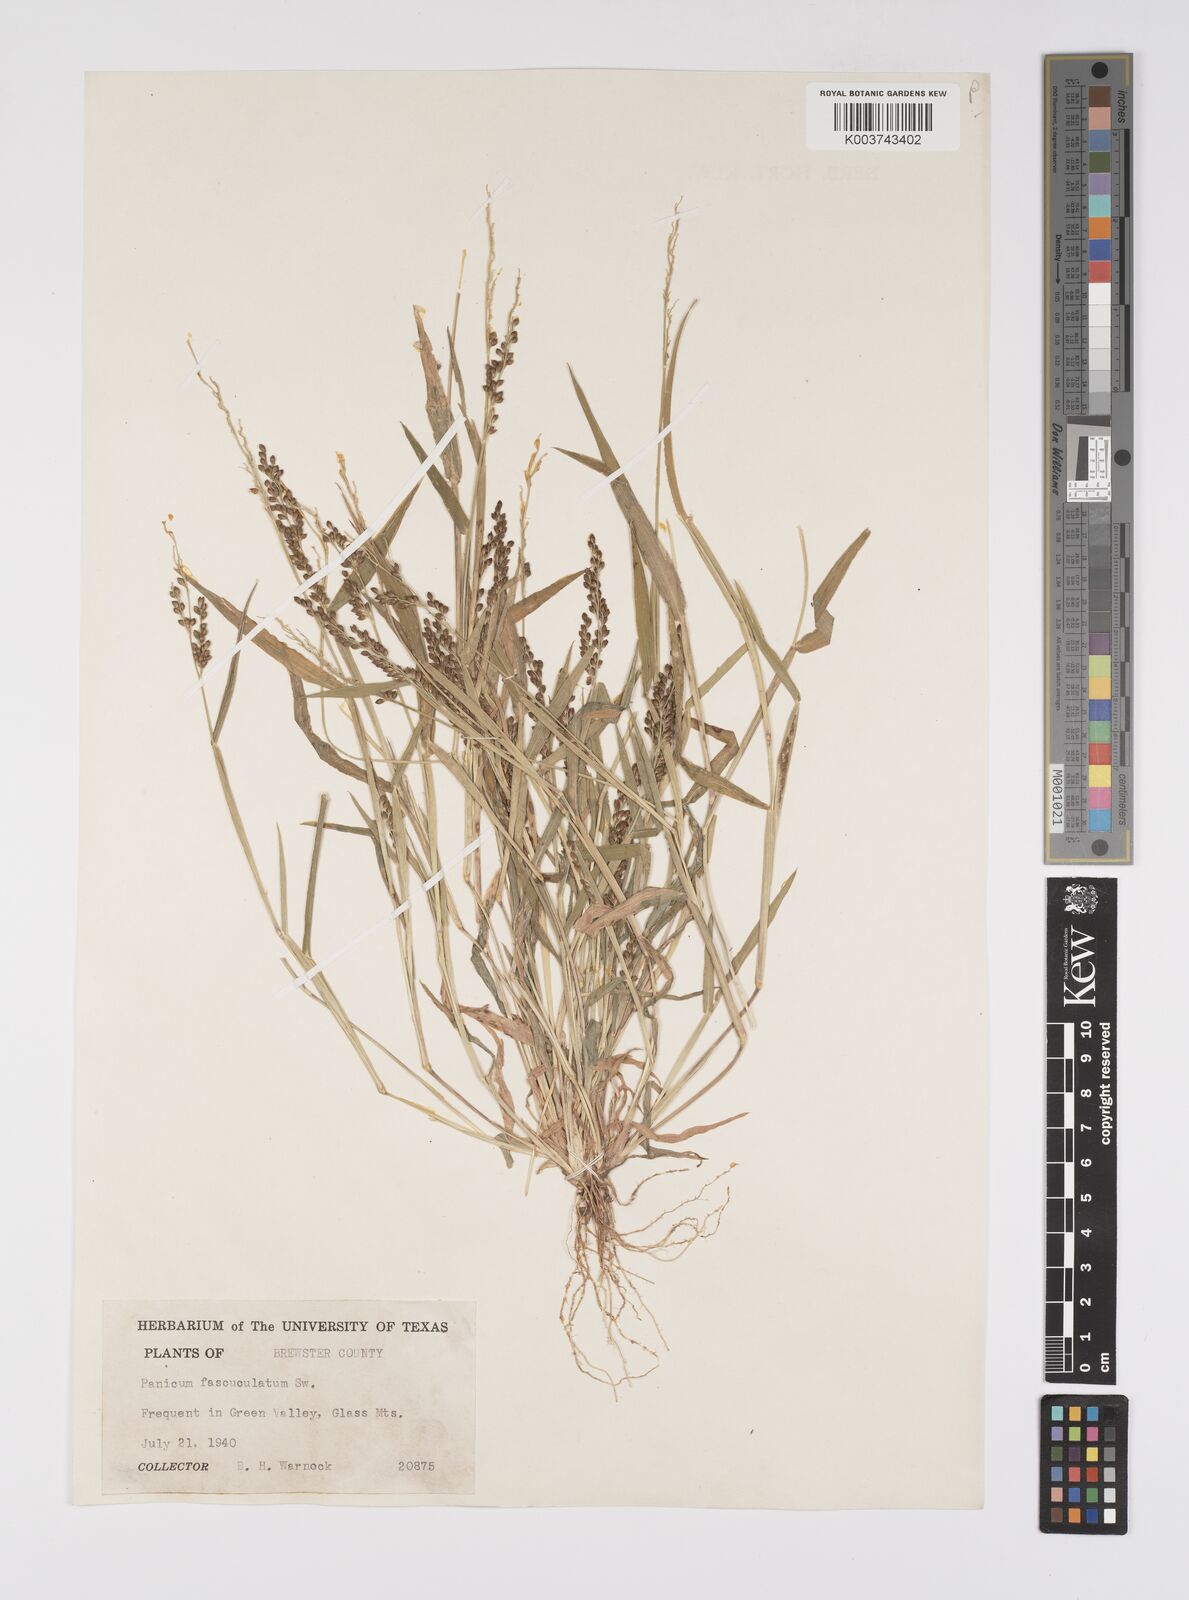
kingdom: Plantae
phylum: Tracheophyta
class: Liliopsida
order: Poales
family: Poaceae
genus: Urochloa
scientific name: Urochloa fusca
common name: Browntop signal grass
